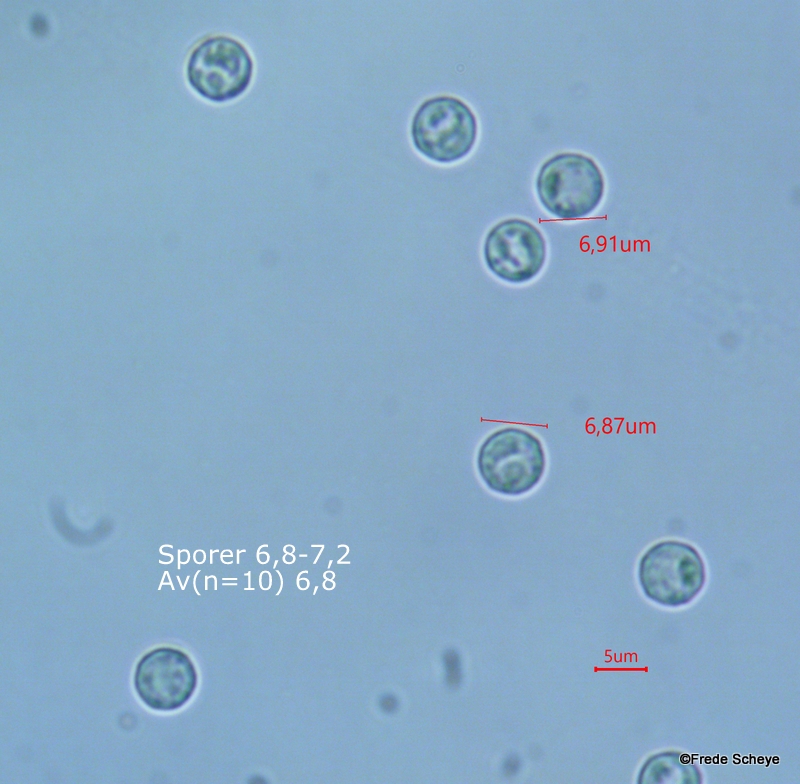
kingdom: Protozoa
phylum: Mycetozoa
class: Myxomycetes
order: Trichiales
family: Arcyriaceae
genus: Arcyria
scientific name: Arcyria cinerea
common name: White carnival candy slime mold
